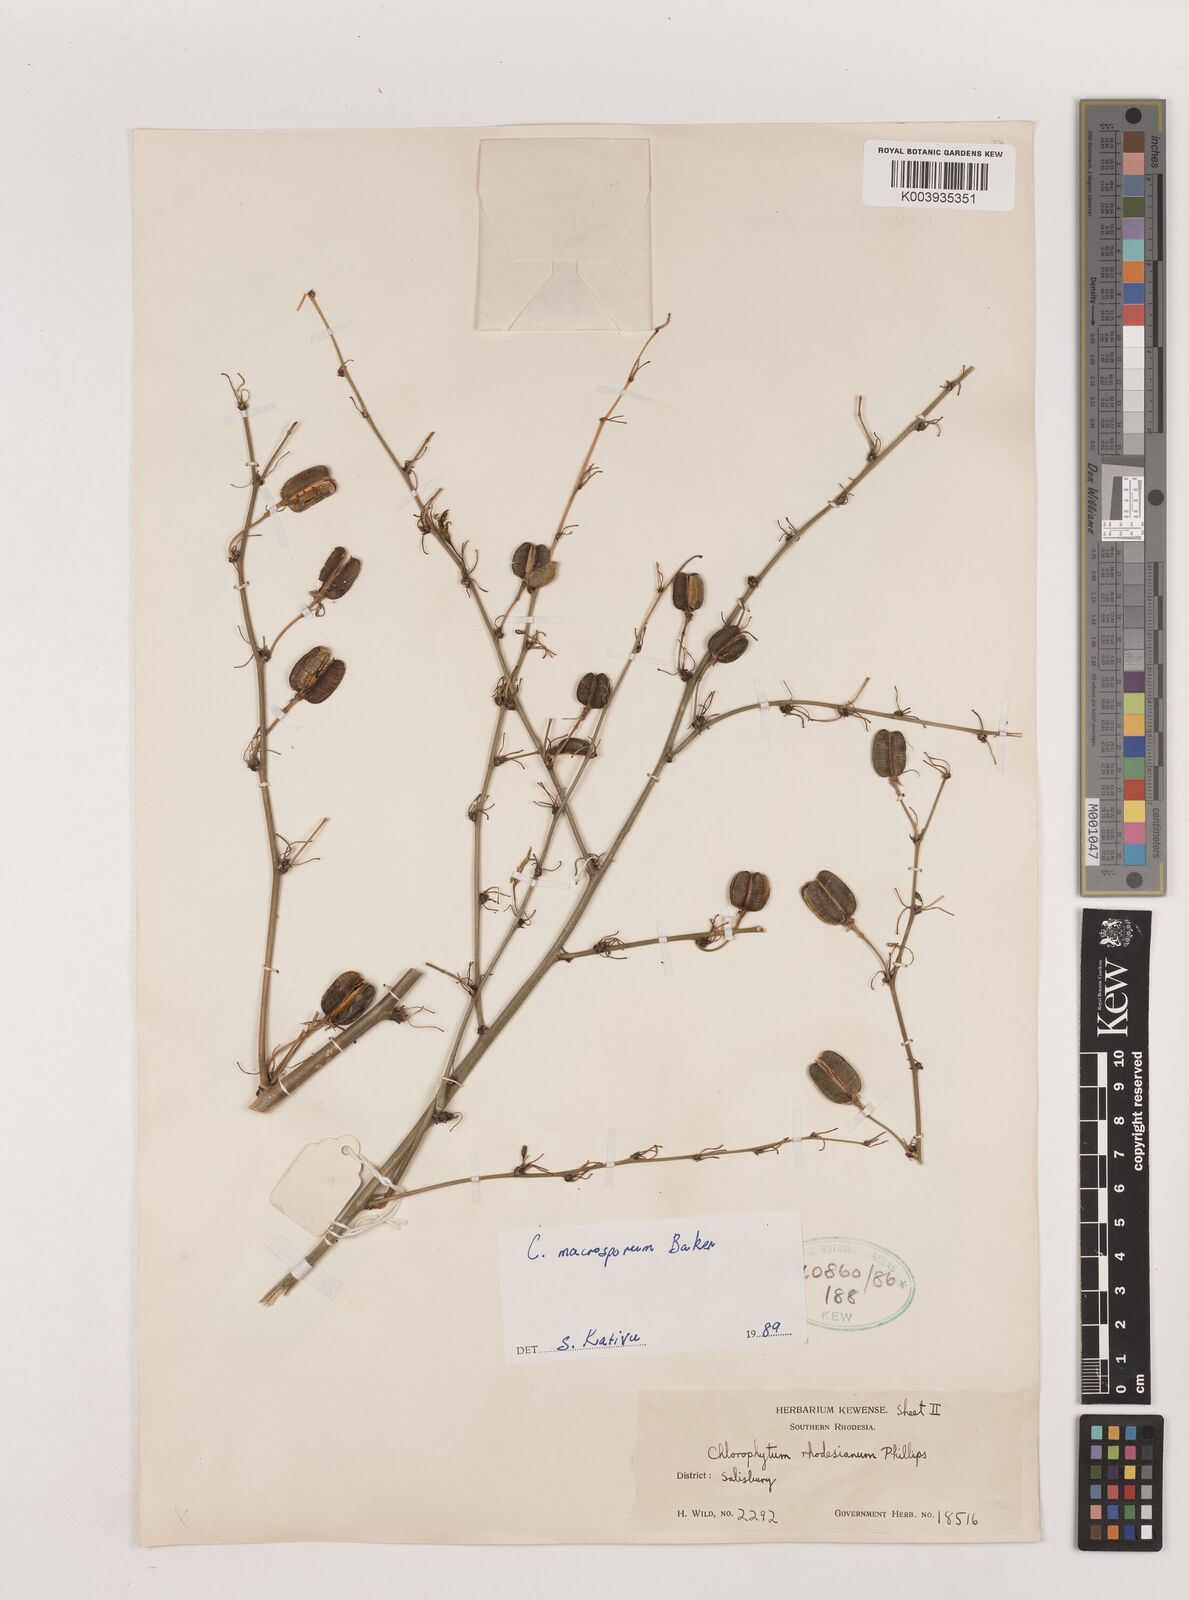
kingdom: Plantae
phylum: Tracheophyta
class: Liliopsida
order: Asparagales
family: Asparagaceae
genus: Chlorophytum
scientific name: Chlorophytum macrosporum
